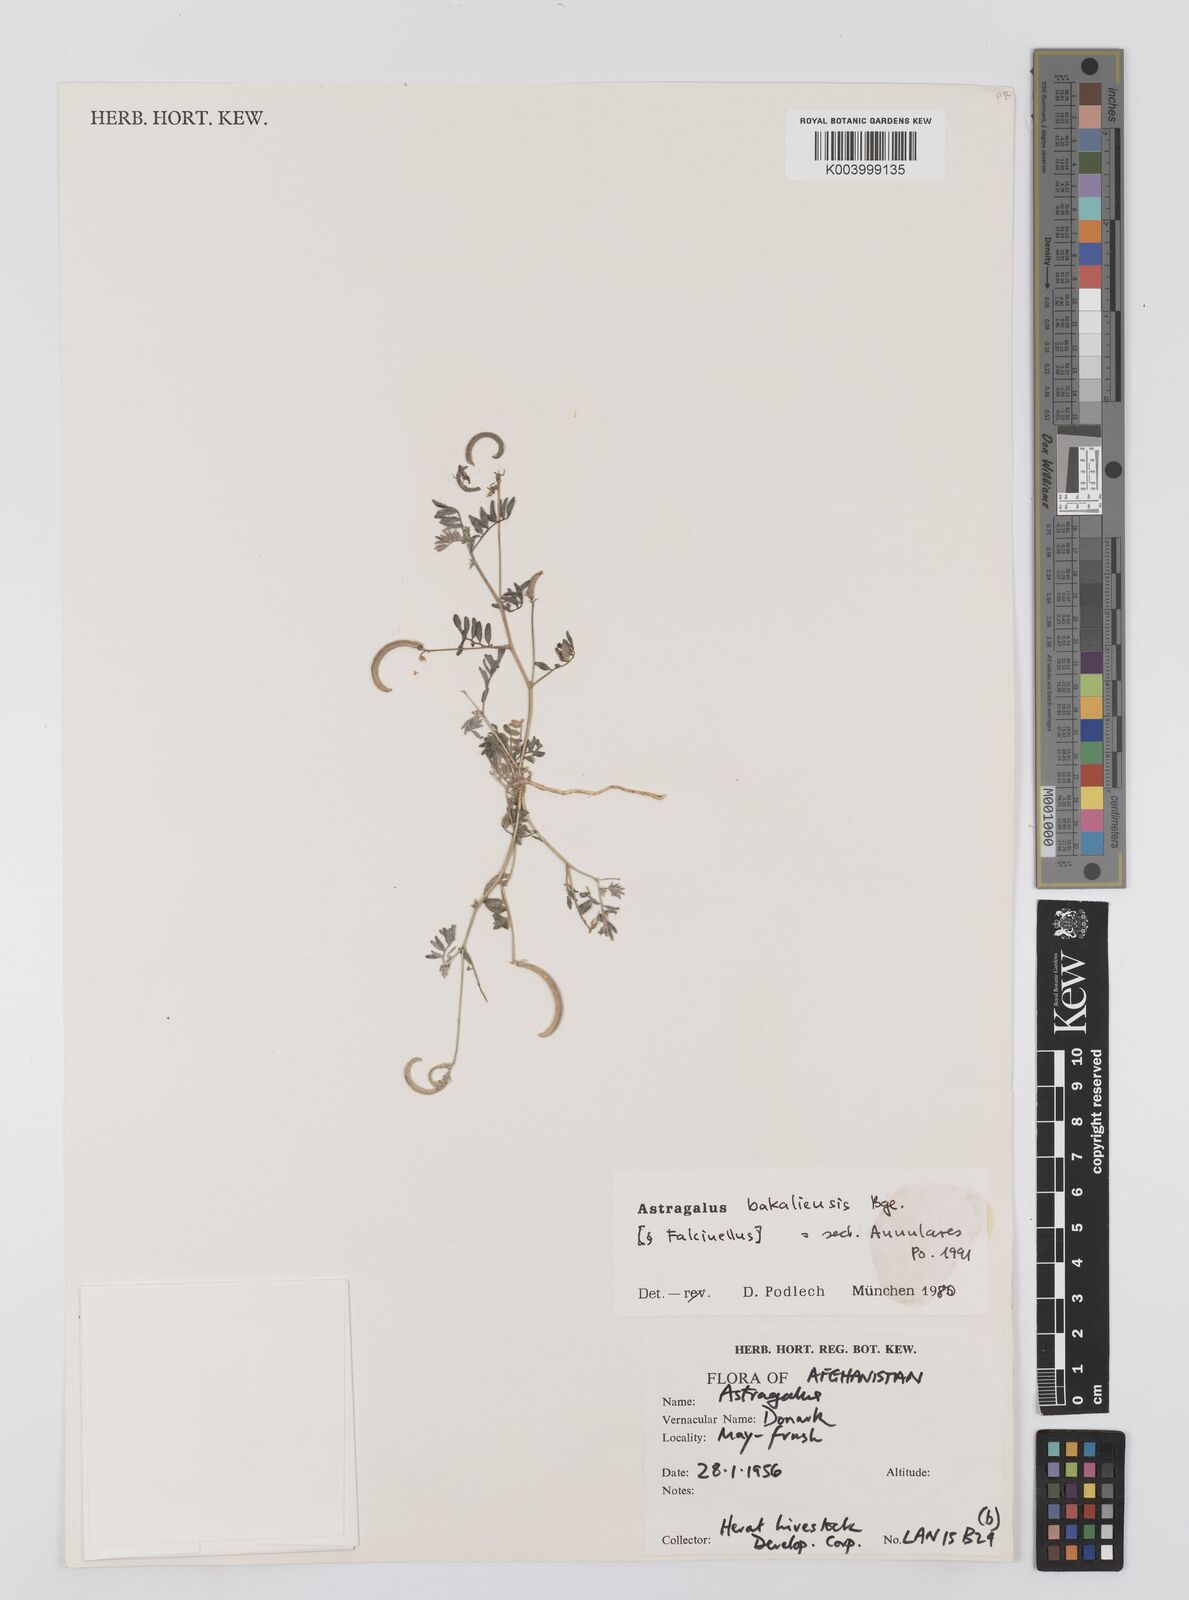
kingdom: Plantae
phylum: Tracheophyta
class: Magnoliopsida
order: Fabales
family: Fabaceae
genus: Astragalus
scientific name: Astragalus bakaliensis
